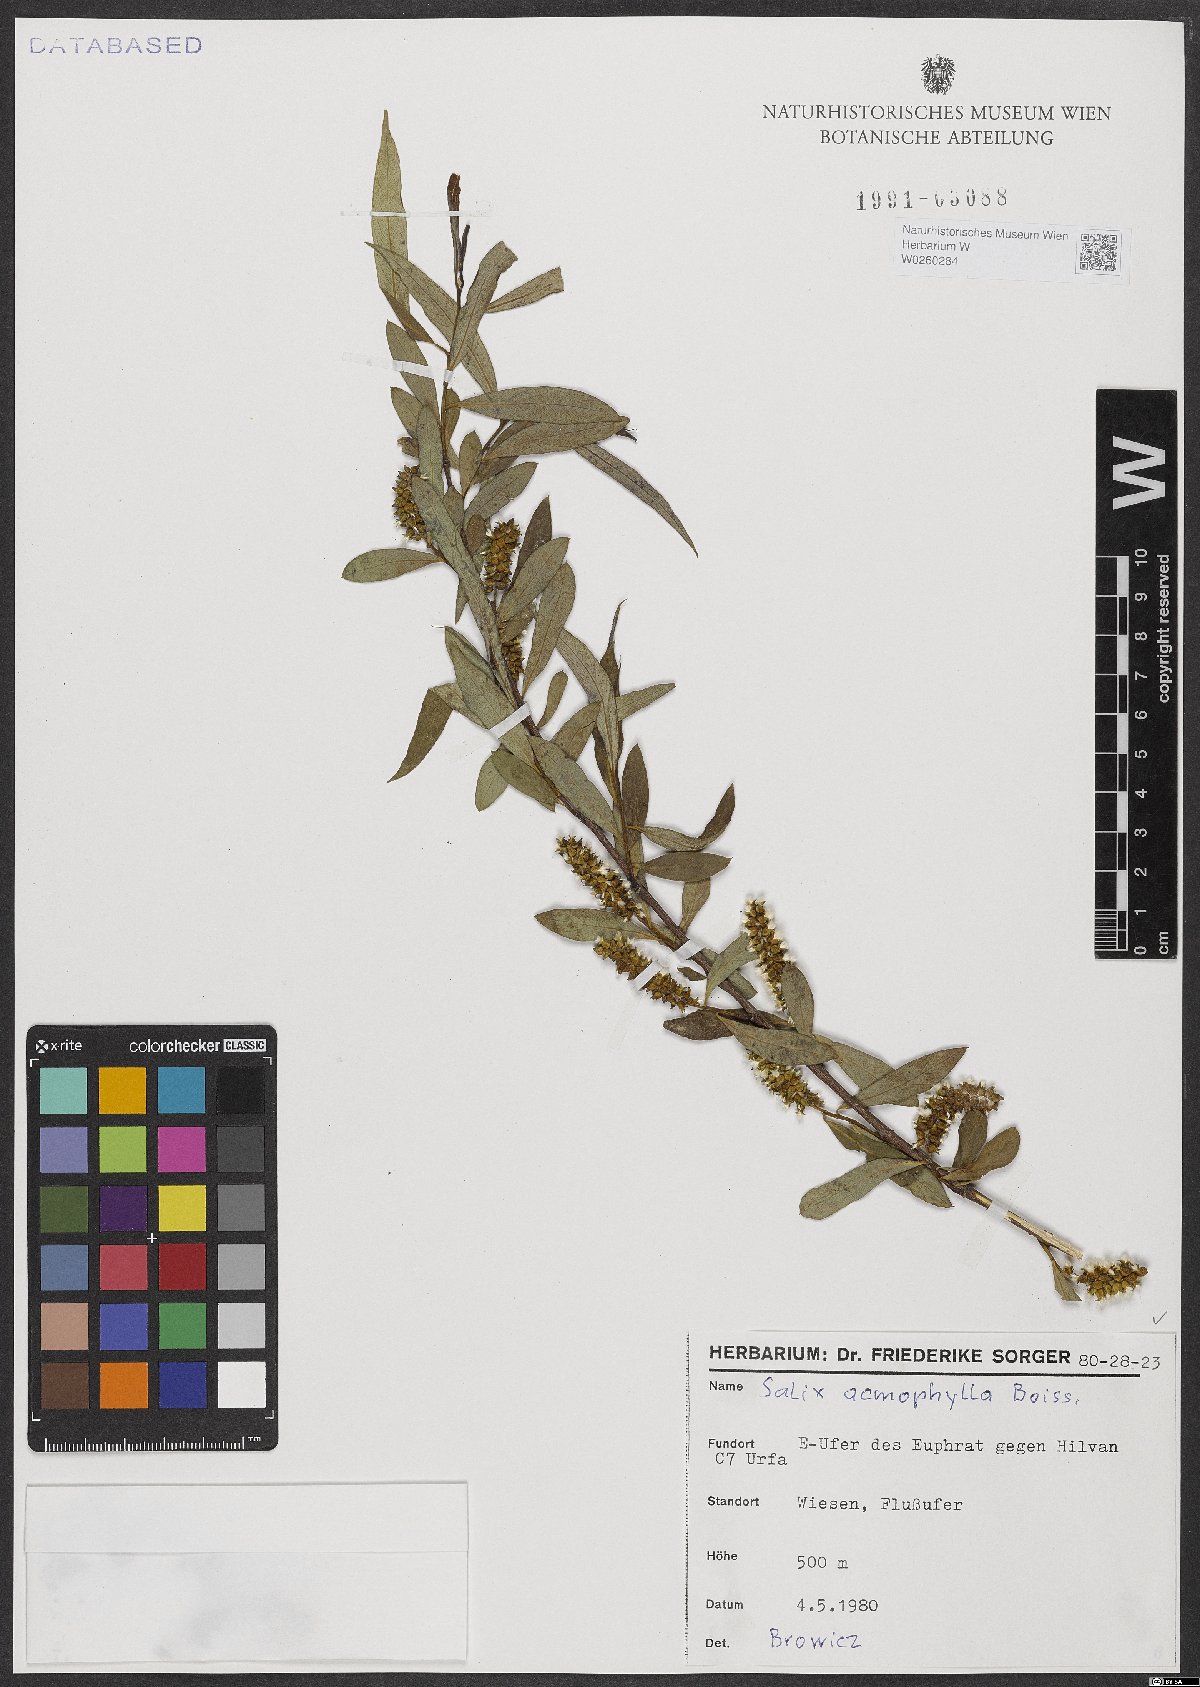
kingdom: Plantae
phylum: Tracheophyta
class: Magnoliopsida
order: Malpighiales
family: Salicaceae
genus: Salix
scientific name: Salix acmophylla
